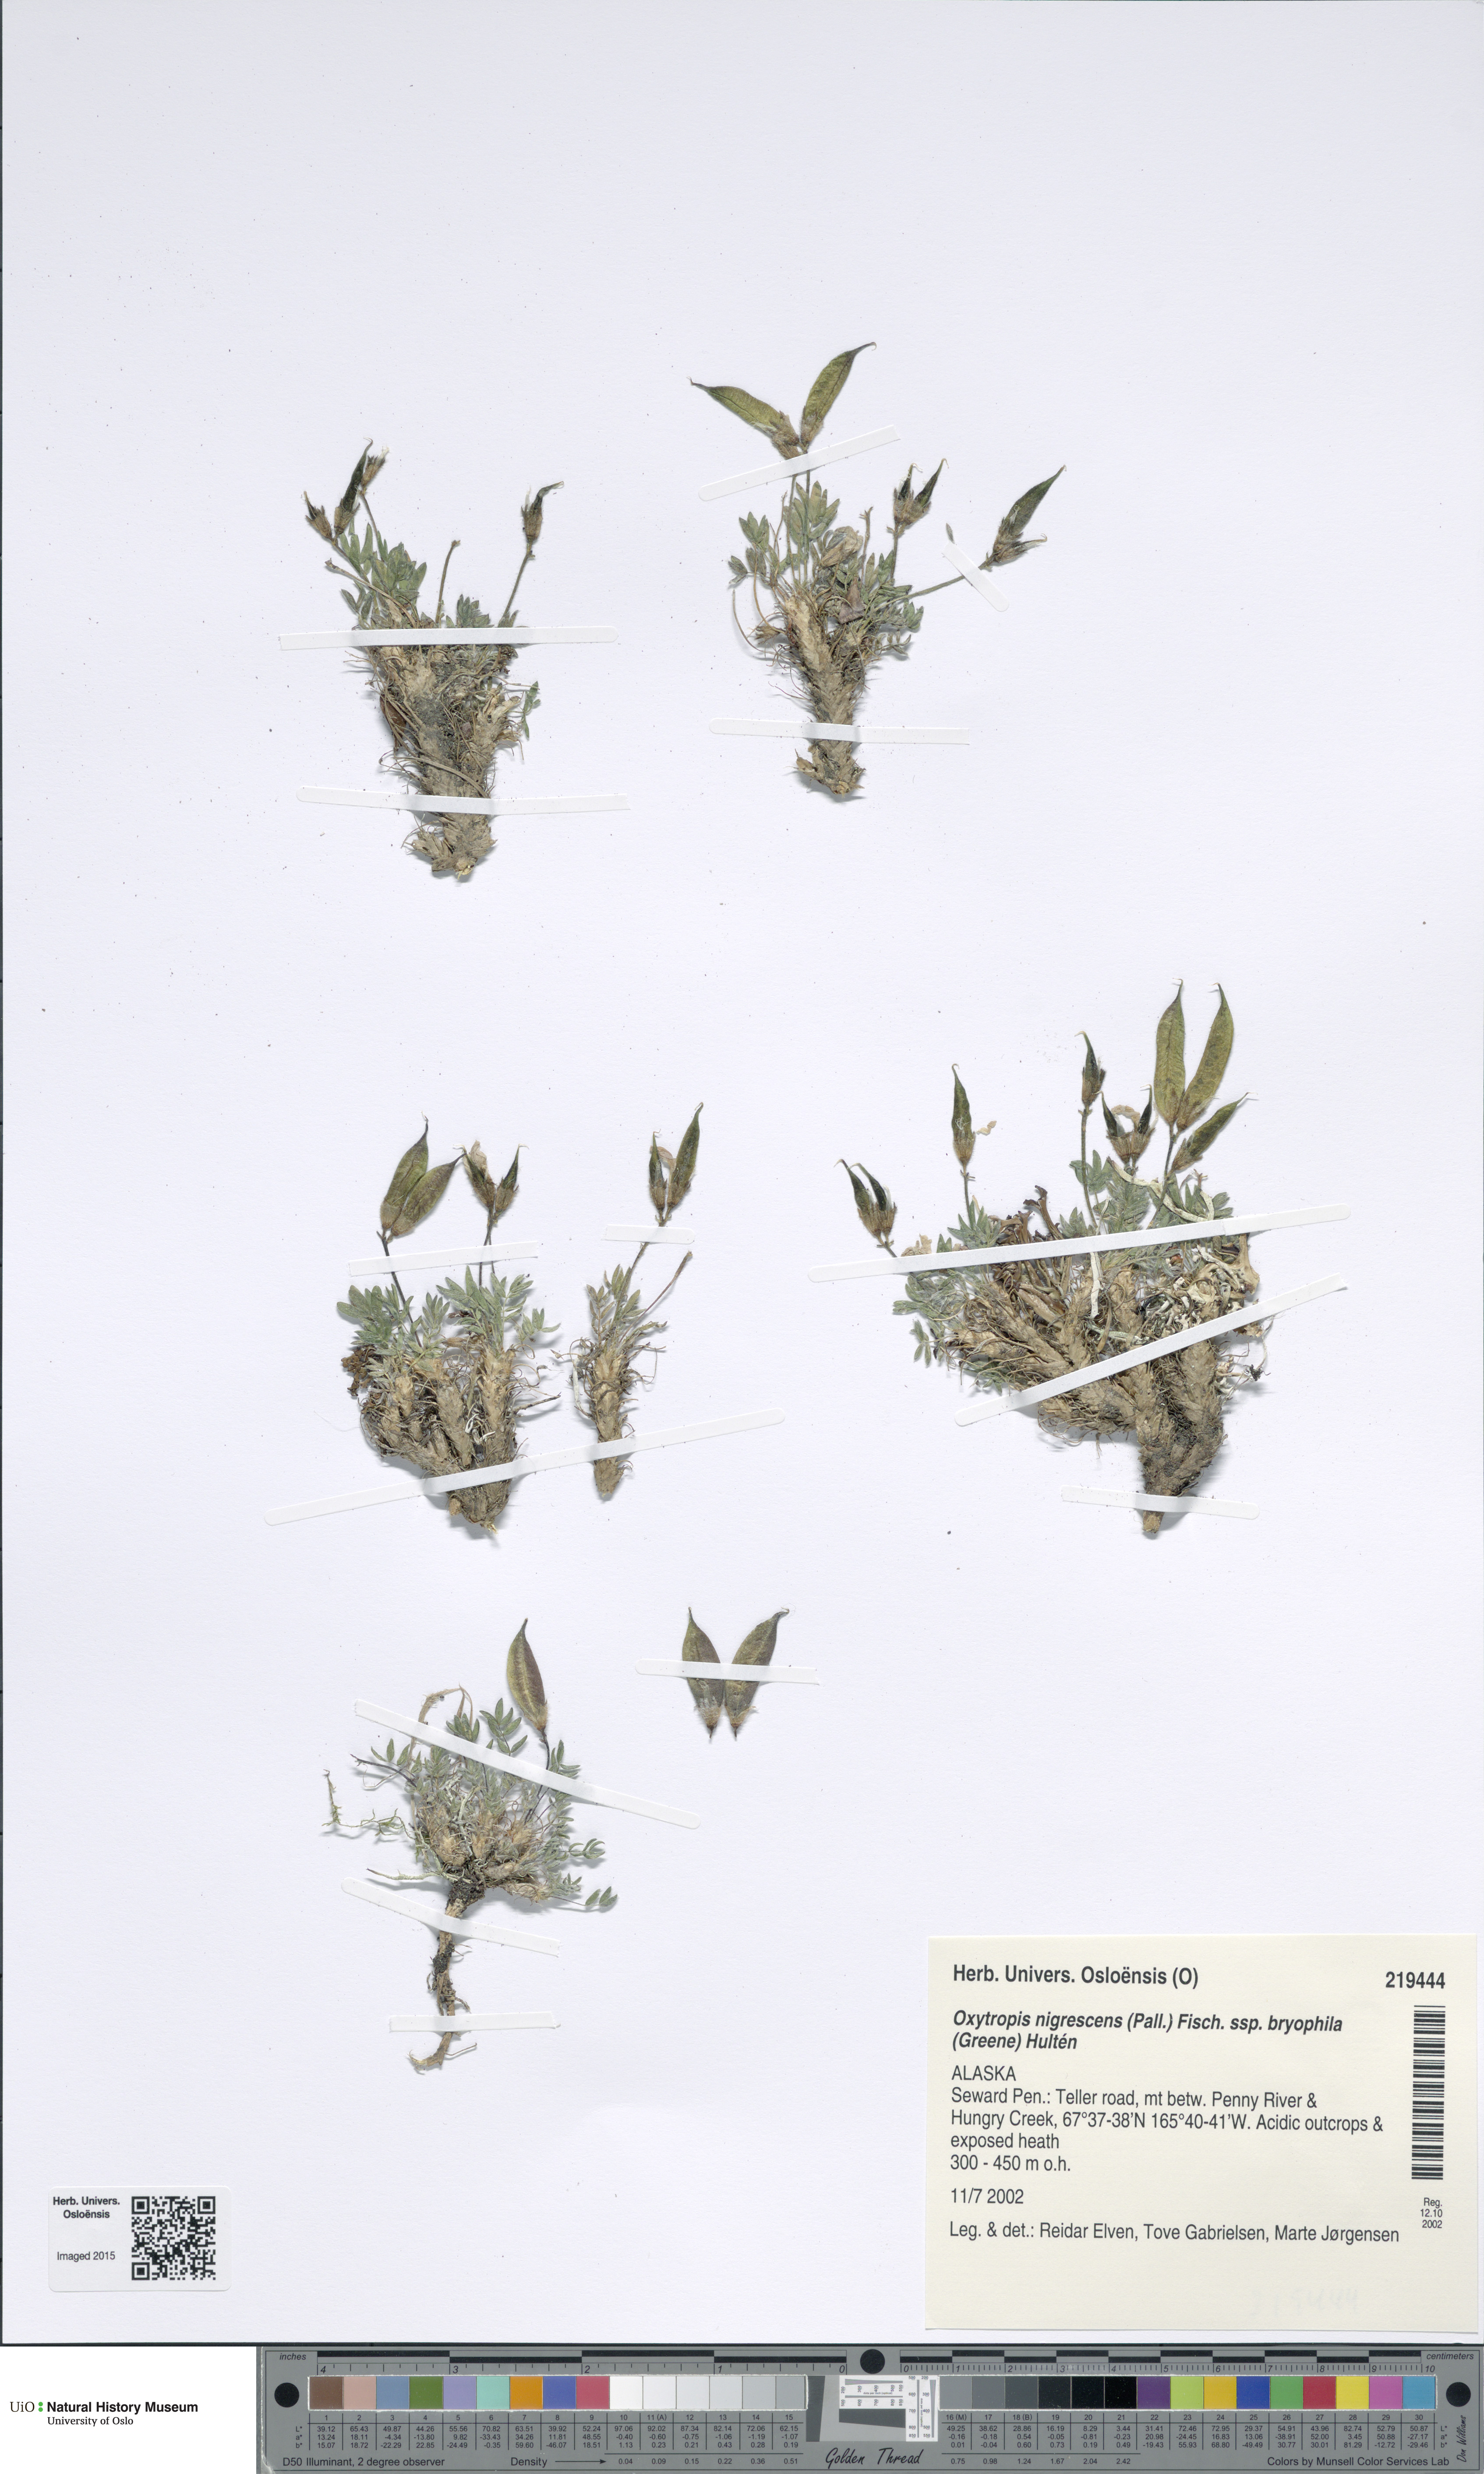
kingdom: Plantae
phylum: Tracheophyta
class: Magnoliopsida
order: Fabales
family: Fabaceae
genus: Oxytropis
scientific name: Oxytropis bryophila
